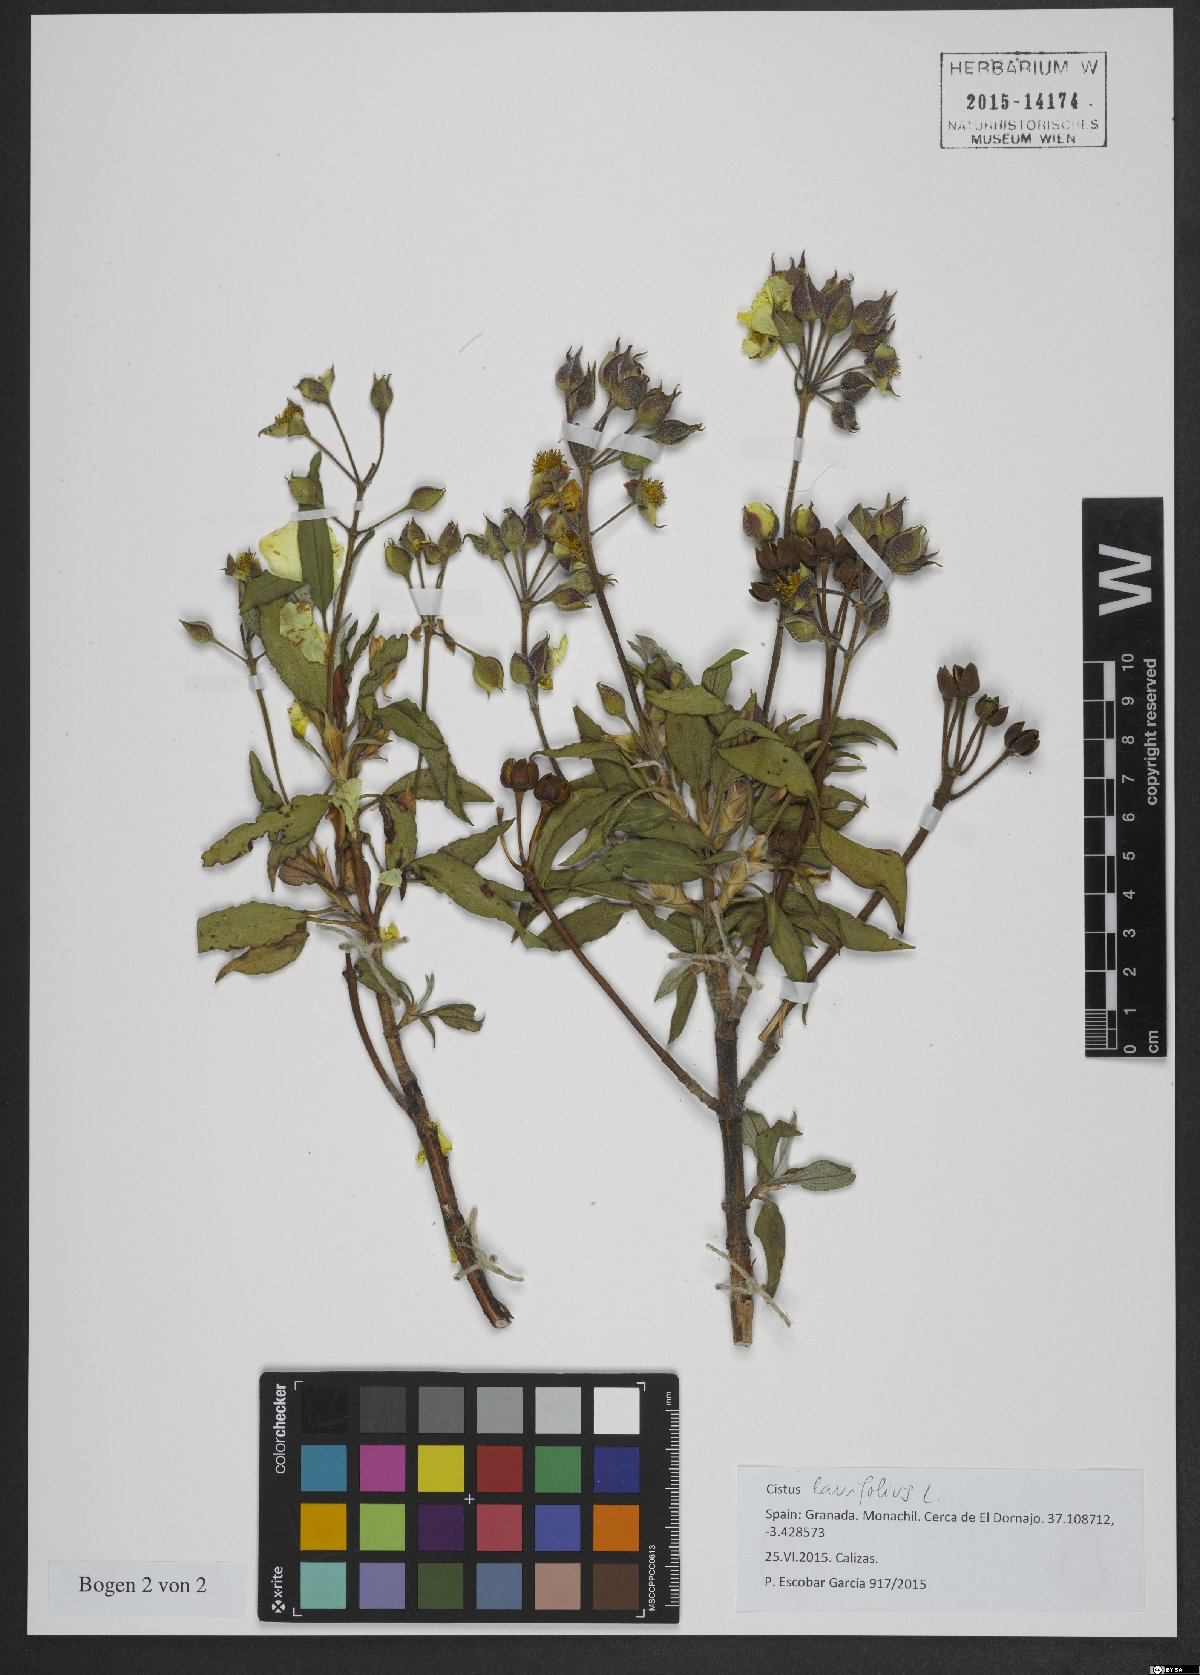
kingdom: Plantae
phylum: Tracheophyta
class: Magnoliopsida
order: Malvales
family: Cistaceae
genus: Cistus
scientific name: Cistus laurifolius
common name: Laurel-leaved cistus
